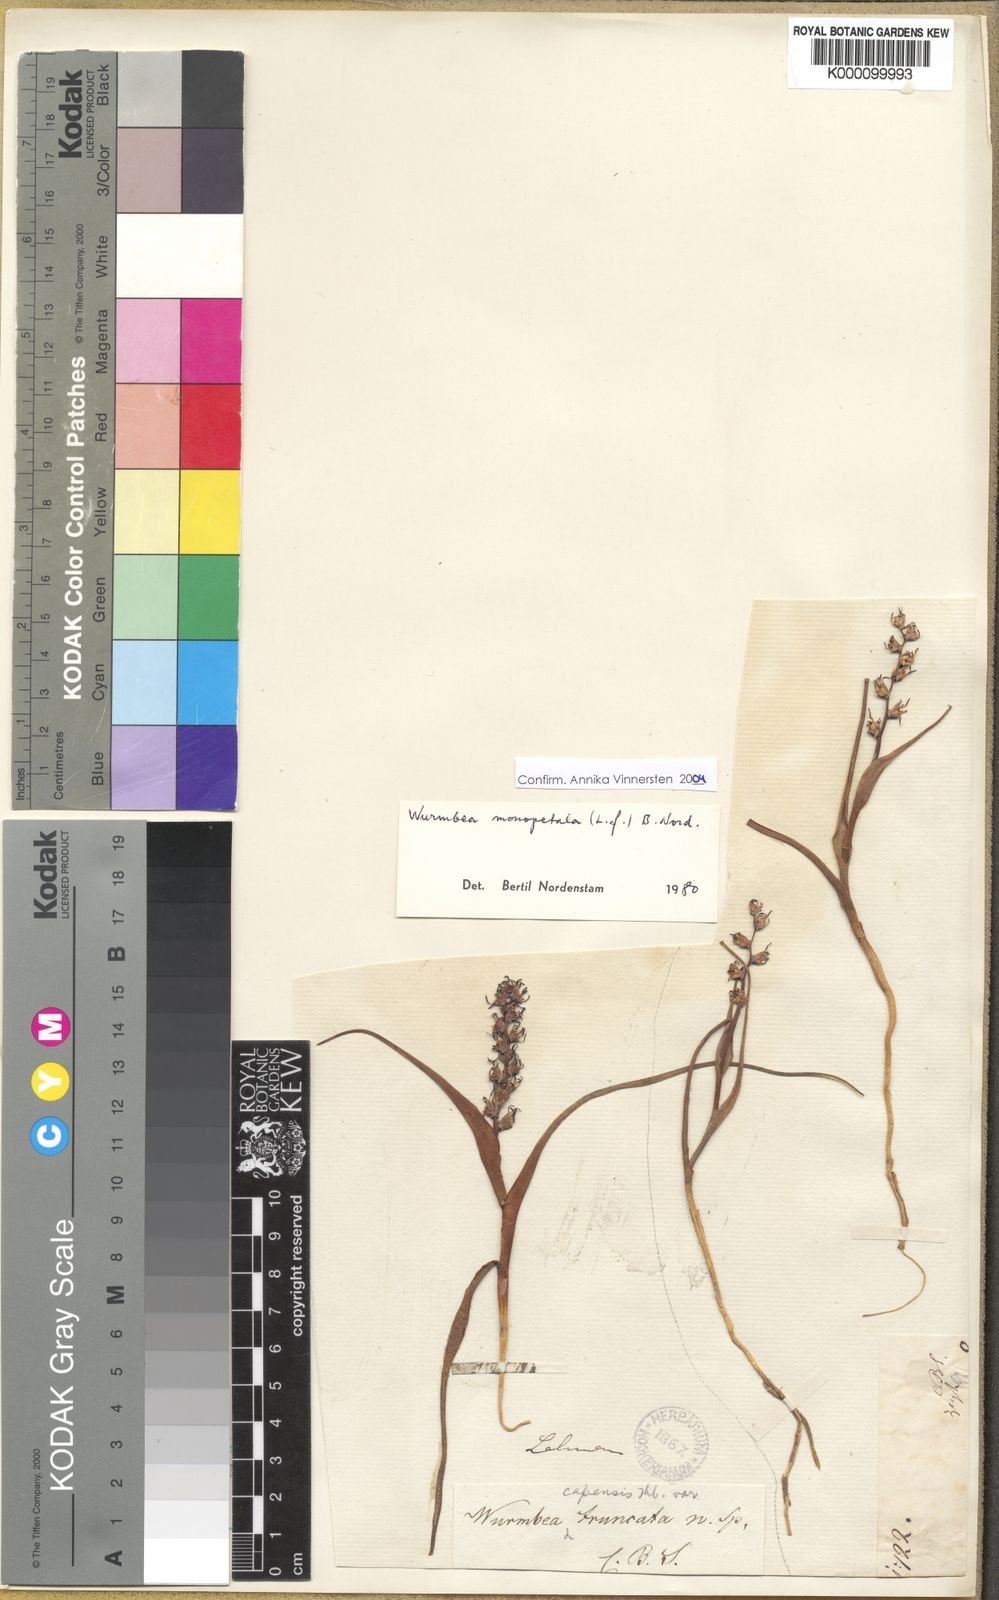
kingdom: Plantae
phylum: Tracheophyta
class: Liliopsida
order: Liliales
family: Colchicaceae
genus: Wurmbea
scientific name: Wurmbea monopetala
